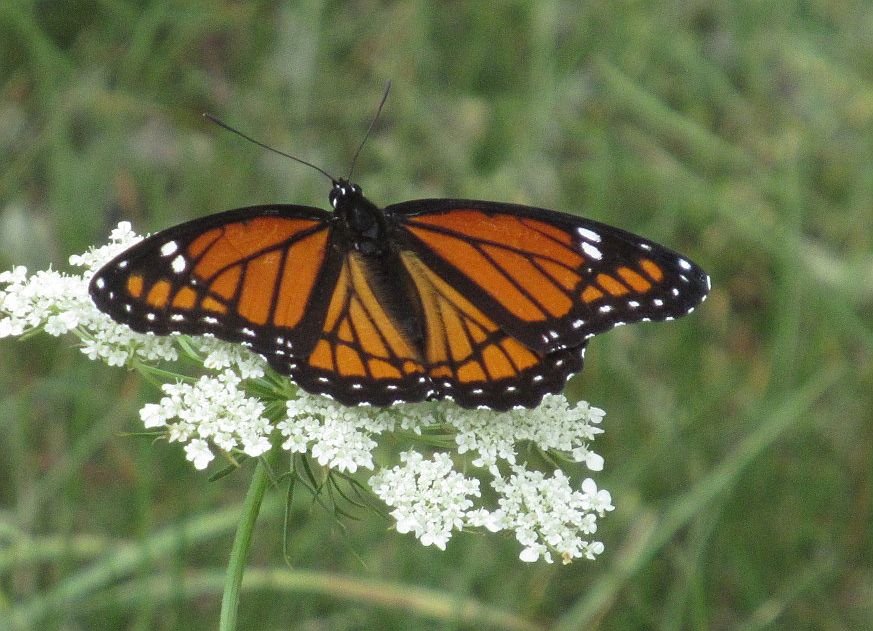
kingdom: Animalia
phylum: Arthropoda
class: Insecta
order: Lepidoptera
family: Nymphalidae
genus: Limenitis
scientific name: Limenitis archippus
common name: Viceroy
